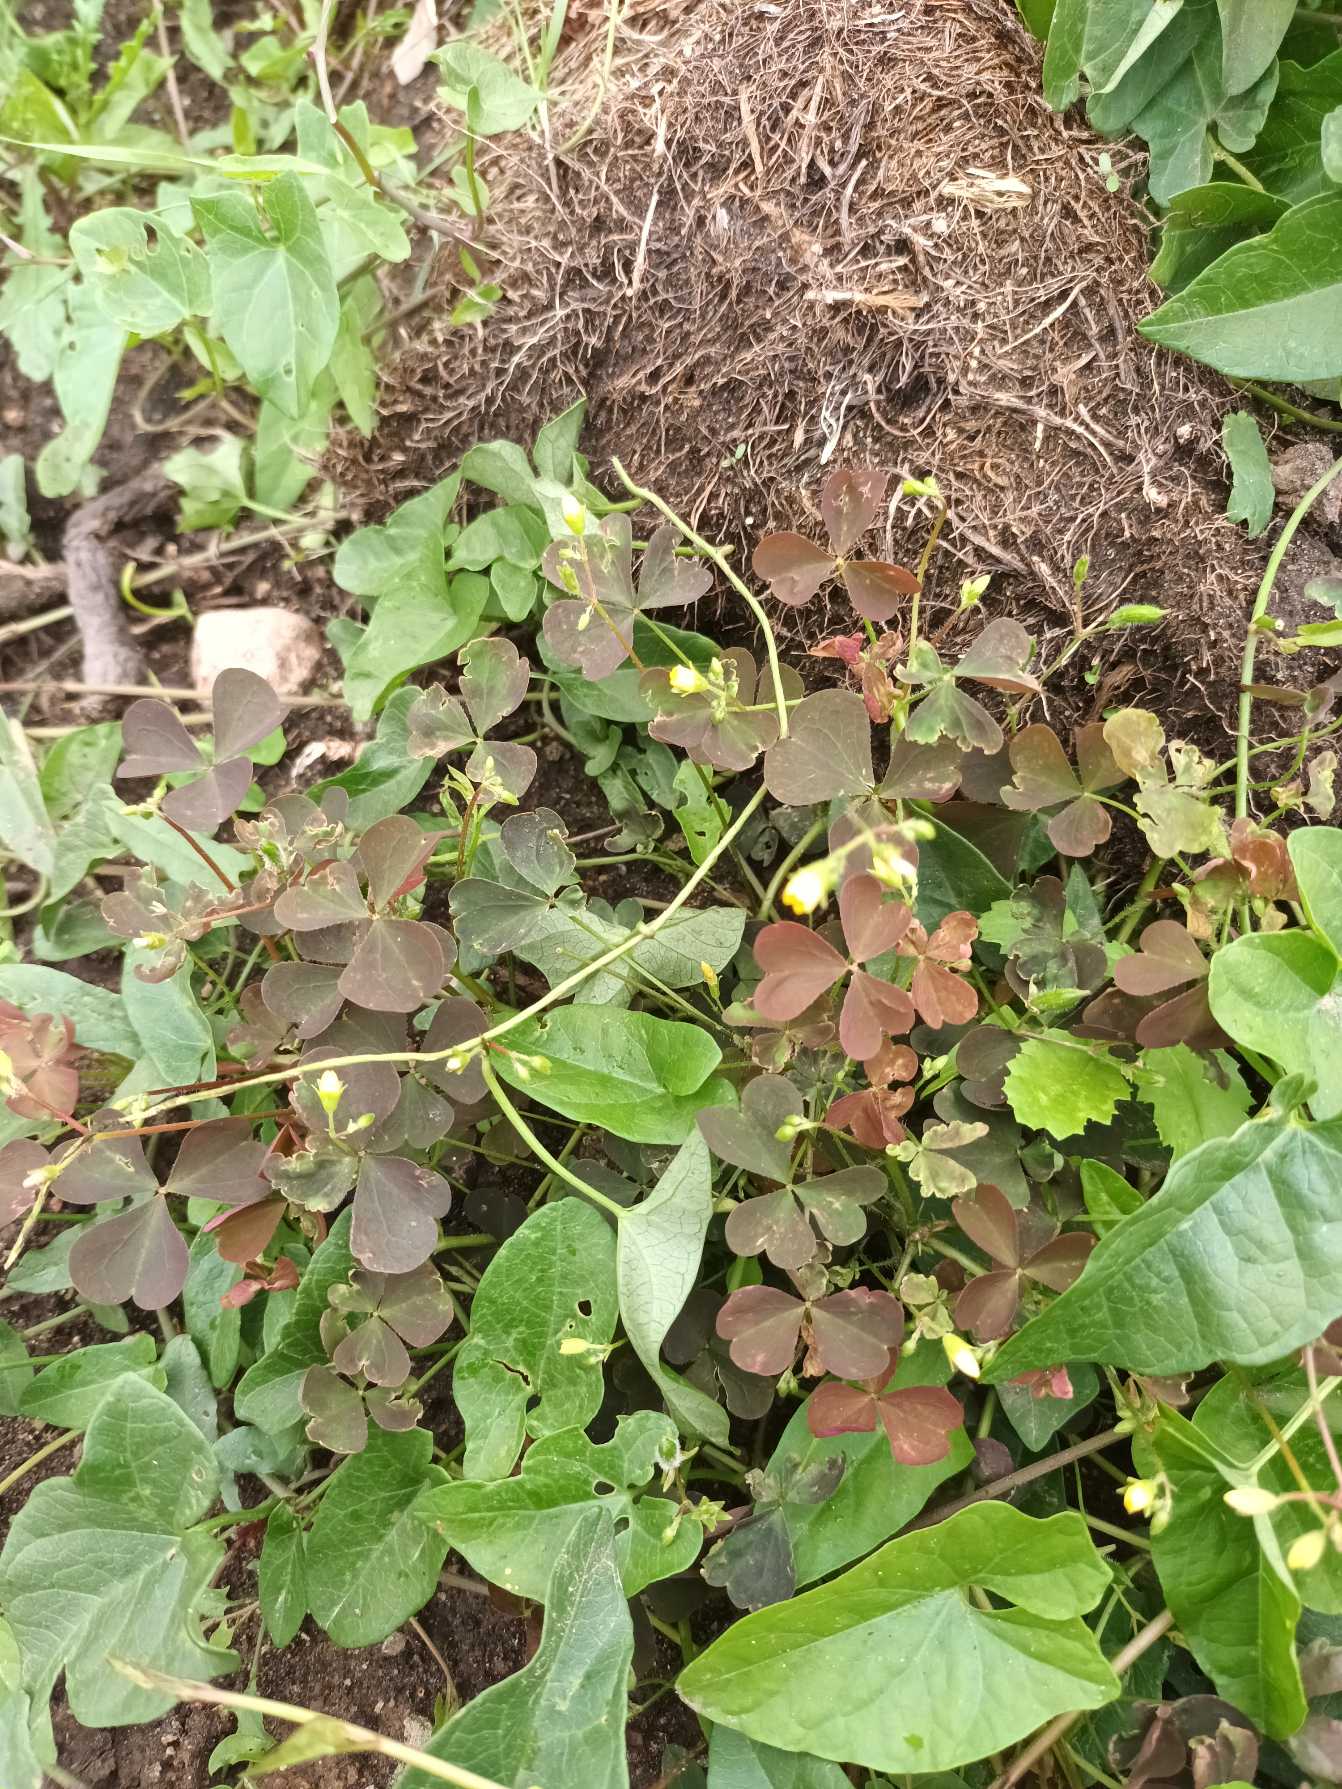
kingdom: Plantae
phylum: Tracheophyta
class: Magnoliopsida
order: Oxalidales
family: Oxalidaceae
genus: Oxalis
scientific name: Oxalis corniculata
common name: Nedliggende surkløver
